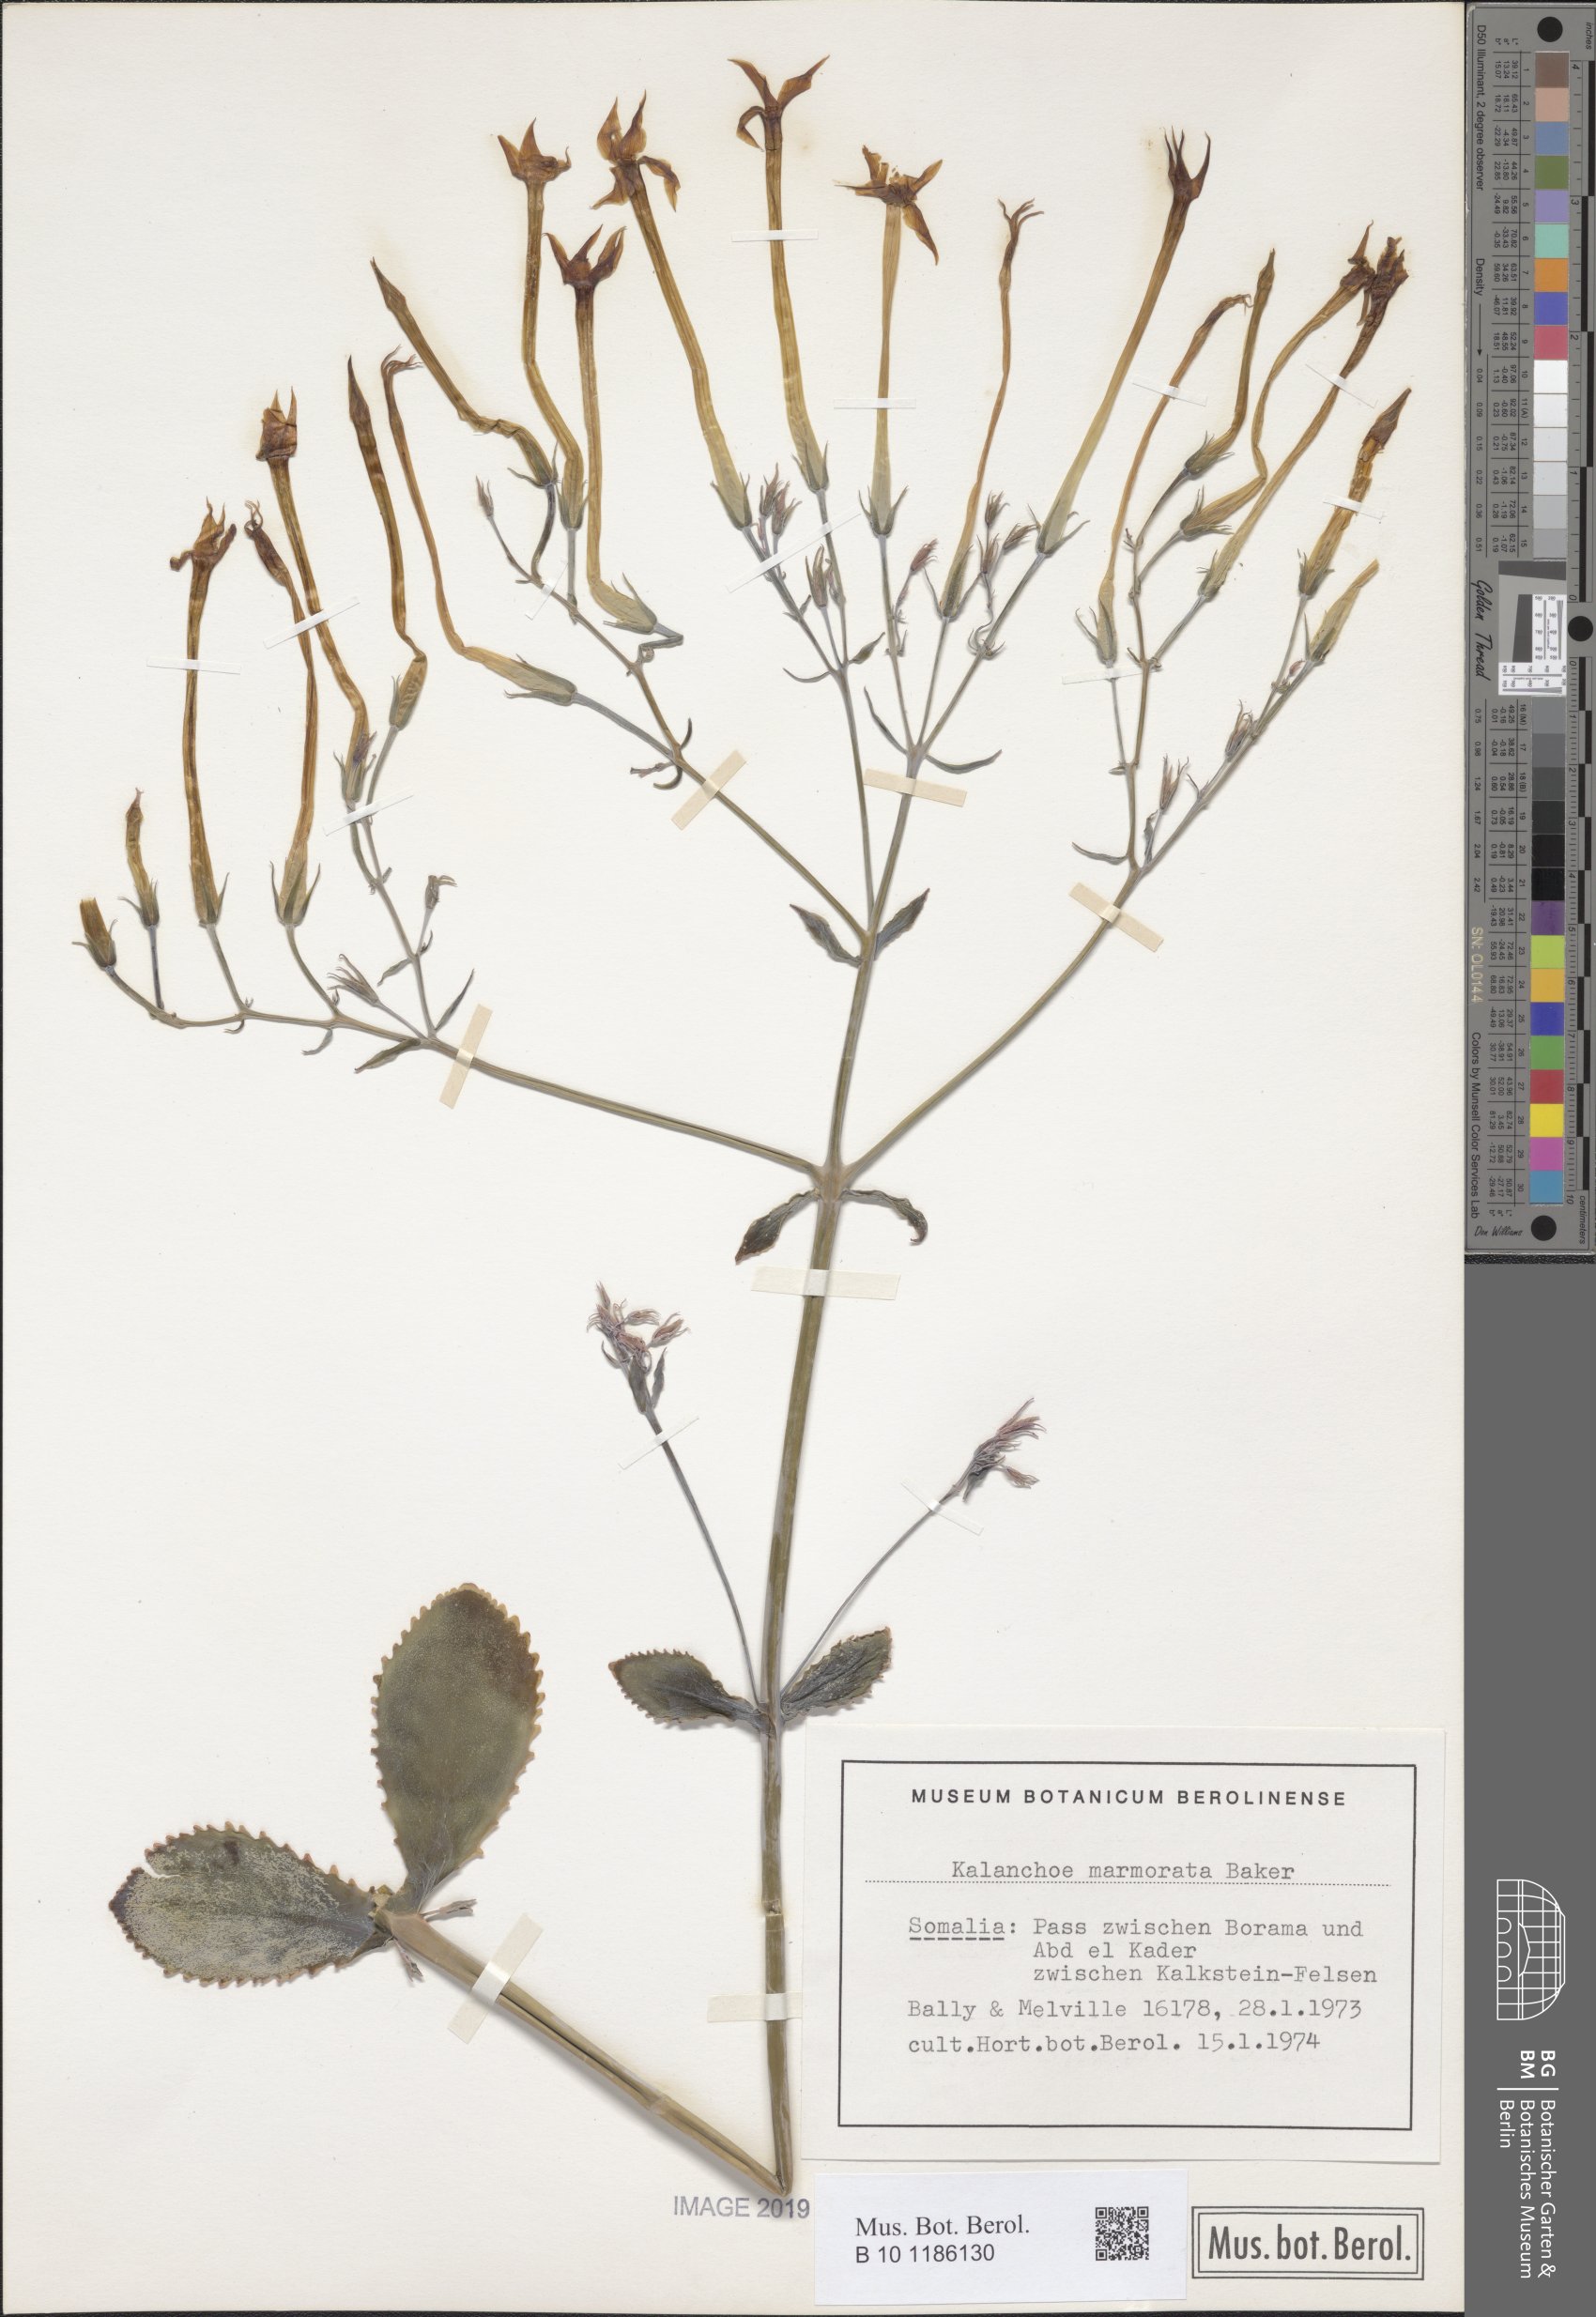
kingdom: Plantae
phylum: Tracheophyta
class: Magnoliopsida
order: Saxifragales
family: Crassulaceae
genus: Kalanchoe
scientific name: Kalanchoe marmorata
